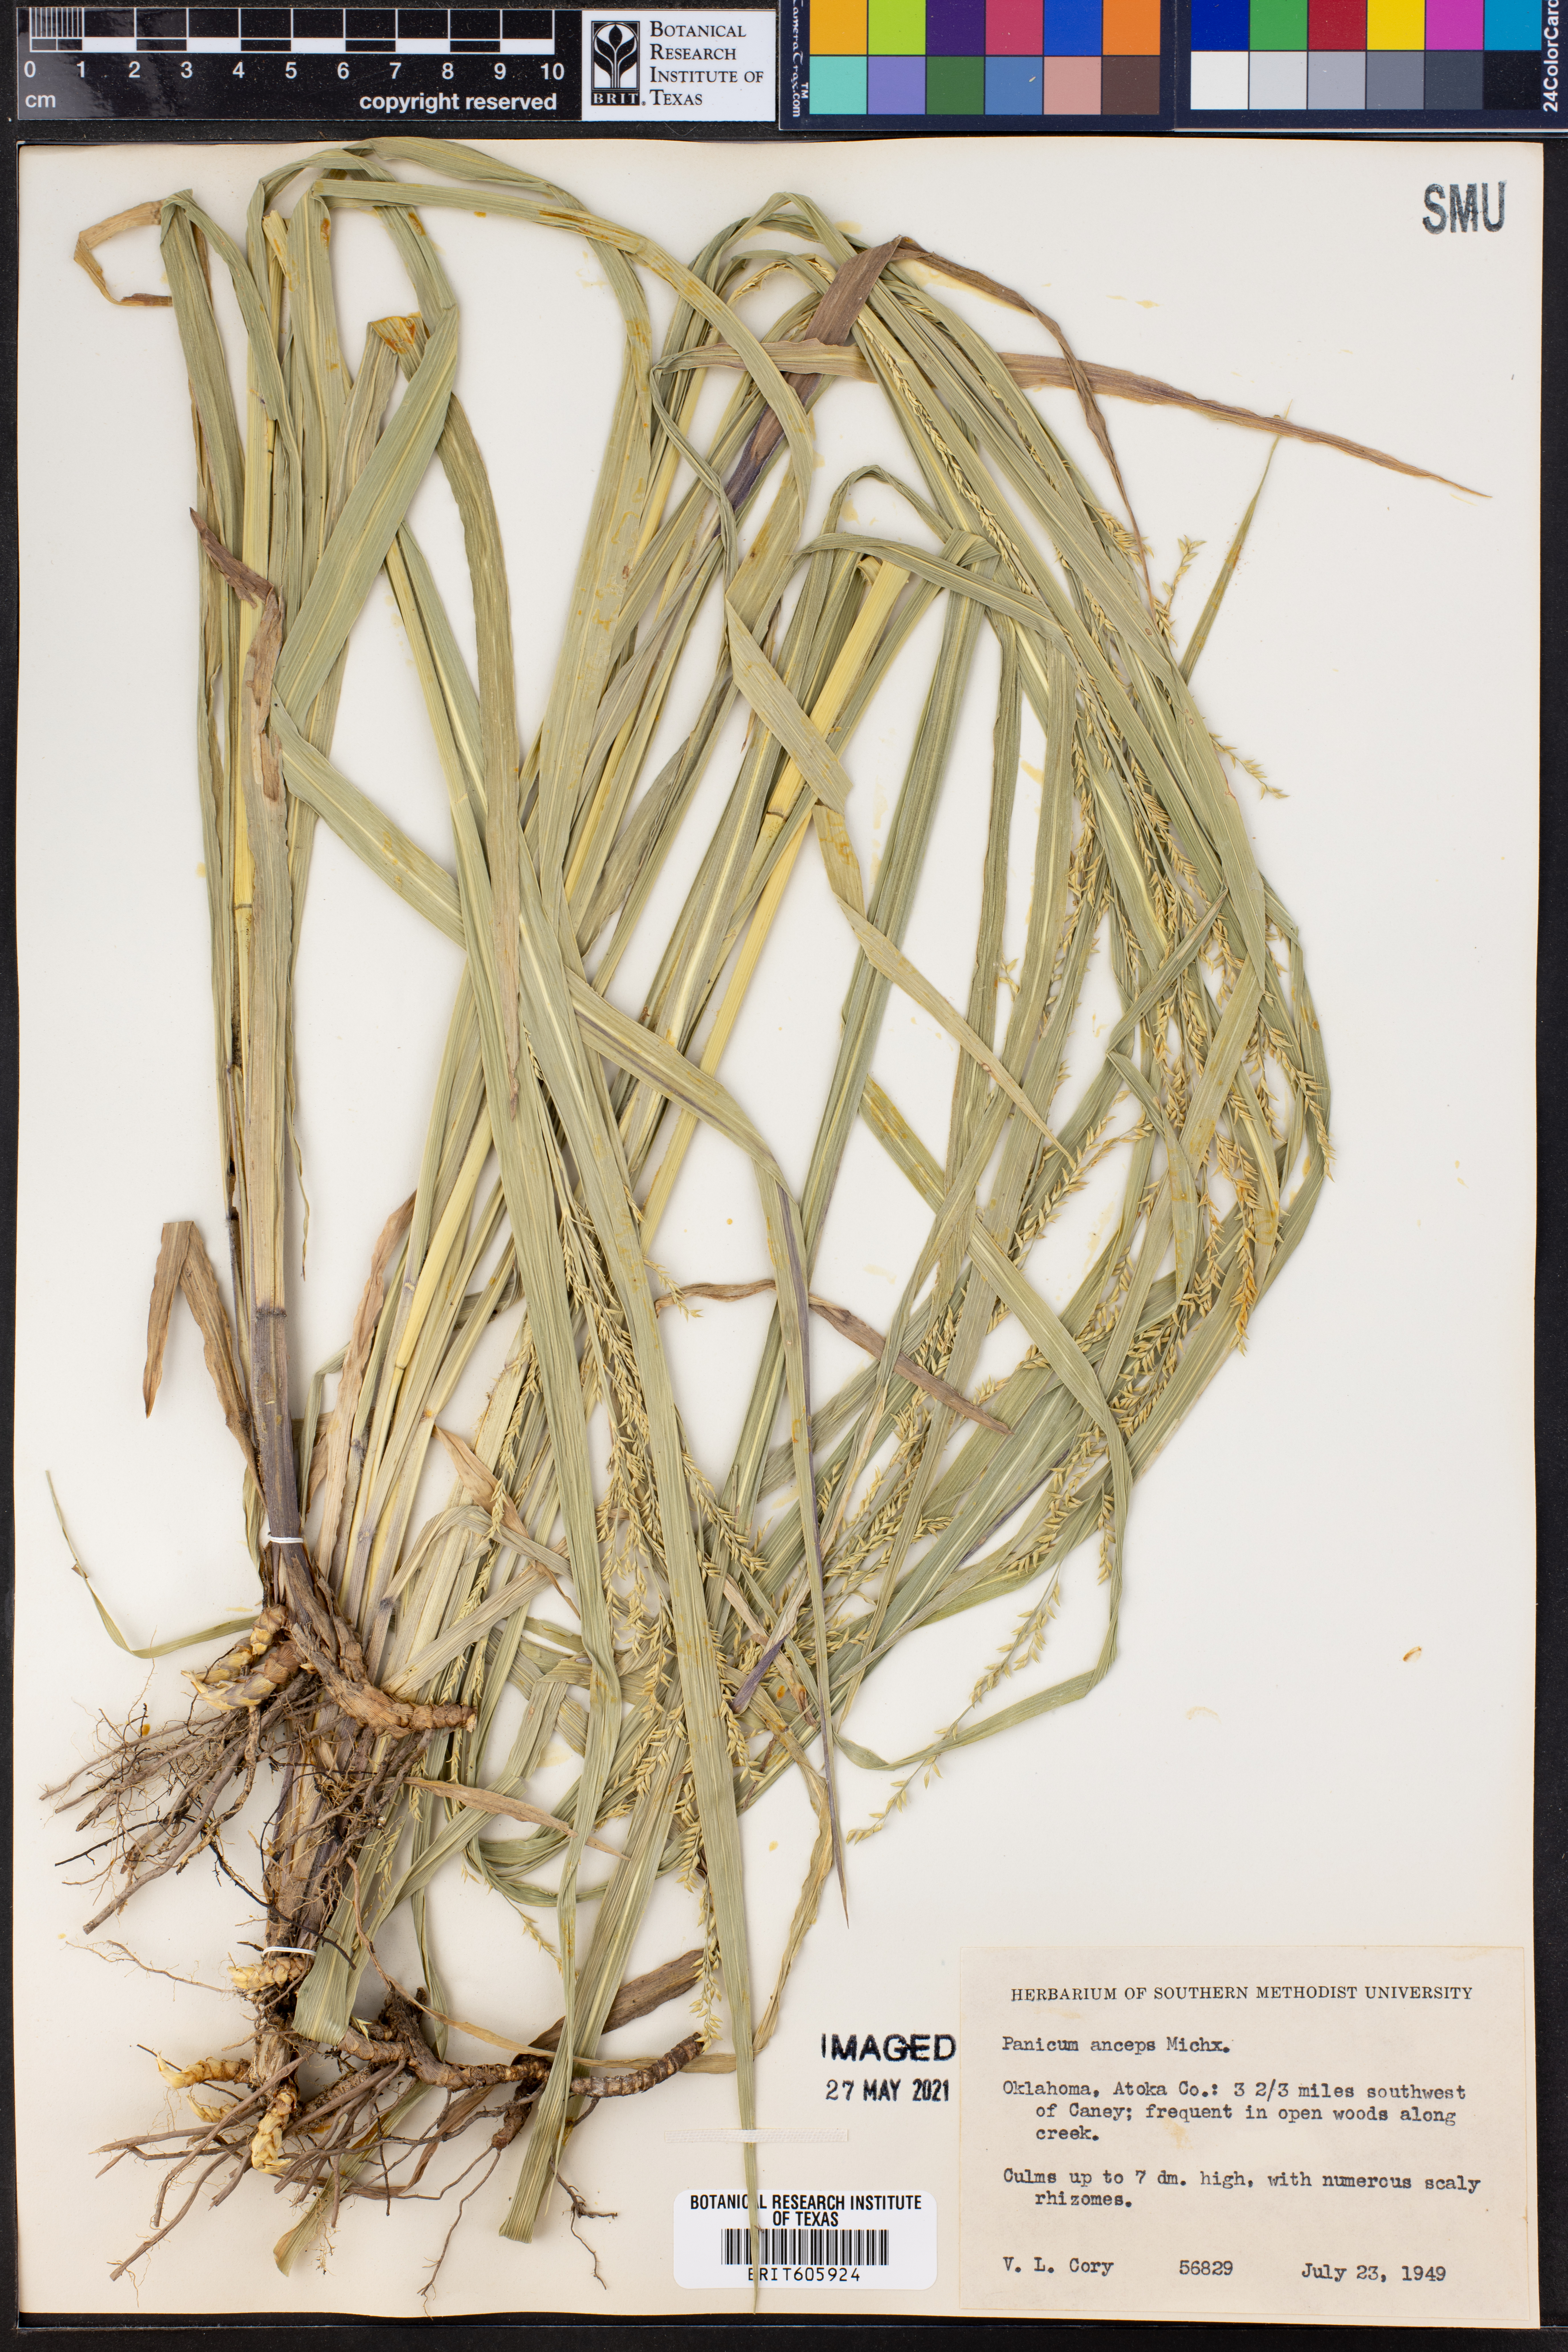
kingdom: Plantae
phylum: Tracheophyta
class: Liliopsida
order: Poales
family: Poaceae
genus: Coleataenia
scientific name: Coleataenia anceps
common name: Beaked panic grass
